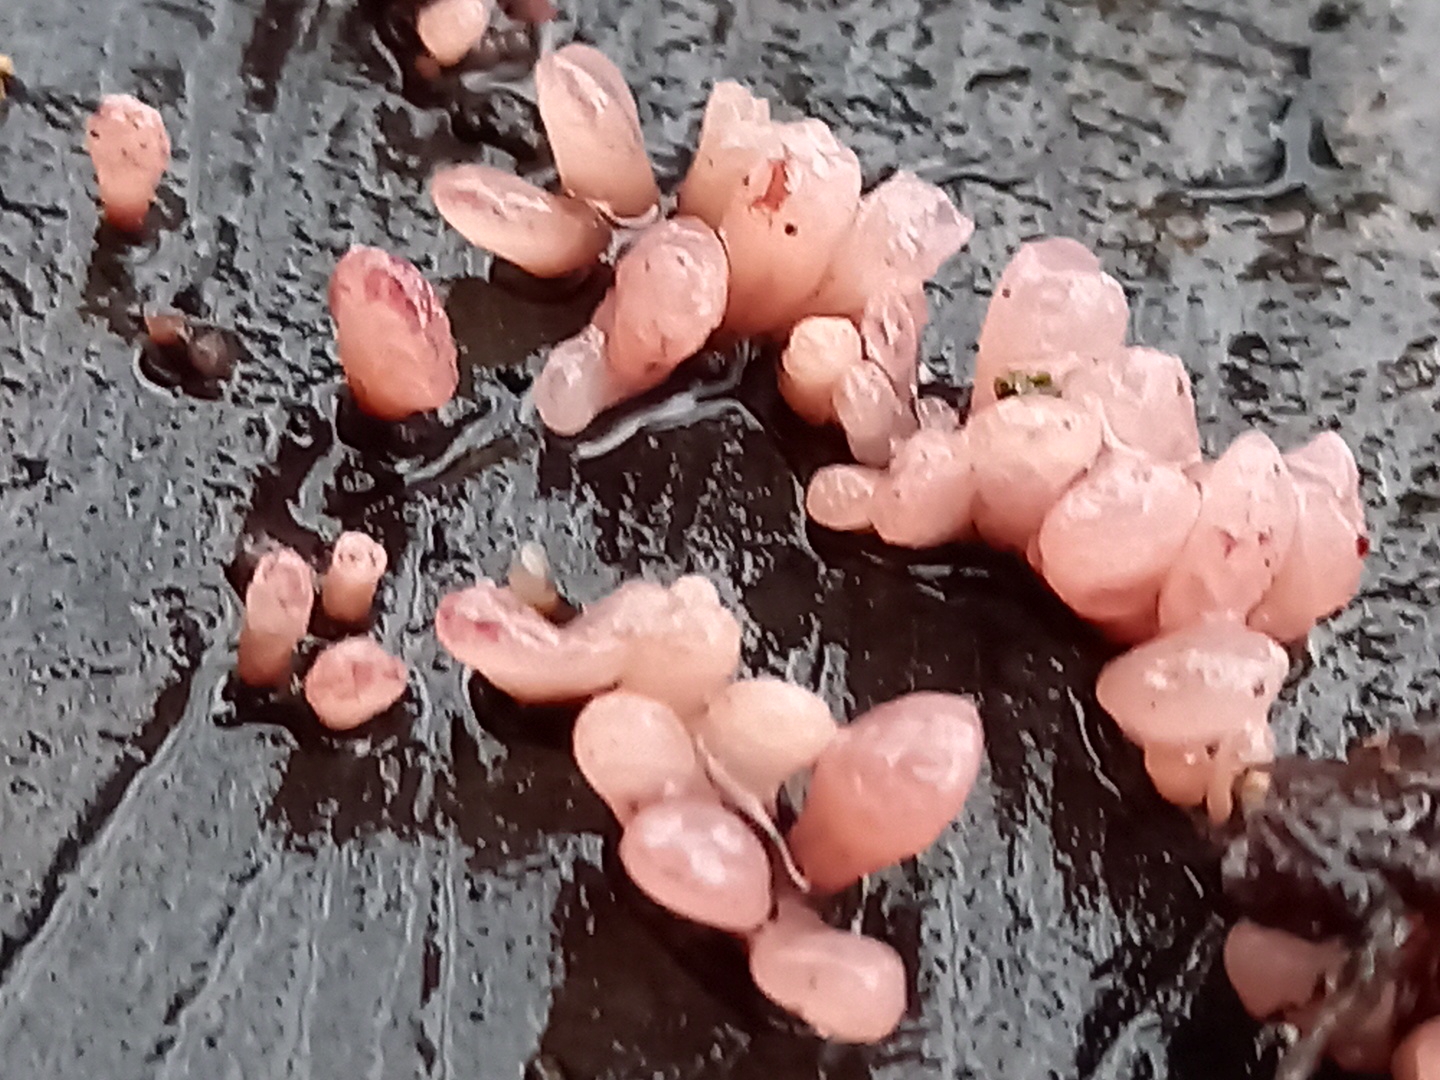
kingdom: Fungi
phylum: Ascomycota
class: Leotiomycetes
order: Helotiales
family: Gelatinodiscaceae
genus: Ascocoryne
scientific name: Ascocoryne sarcoides
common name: rødlilla sejskive
